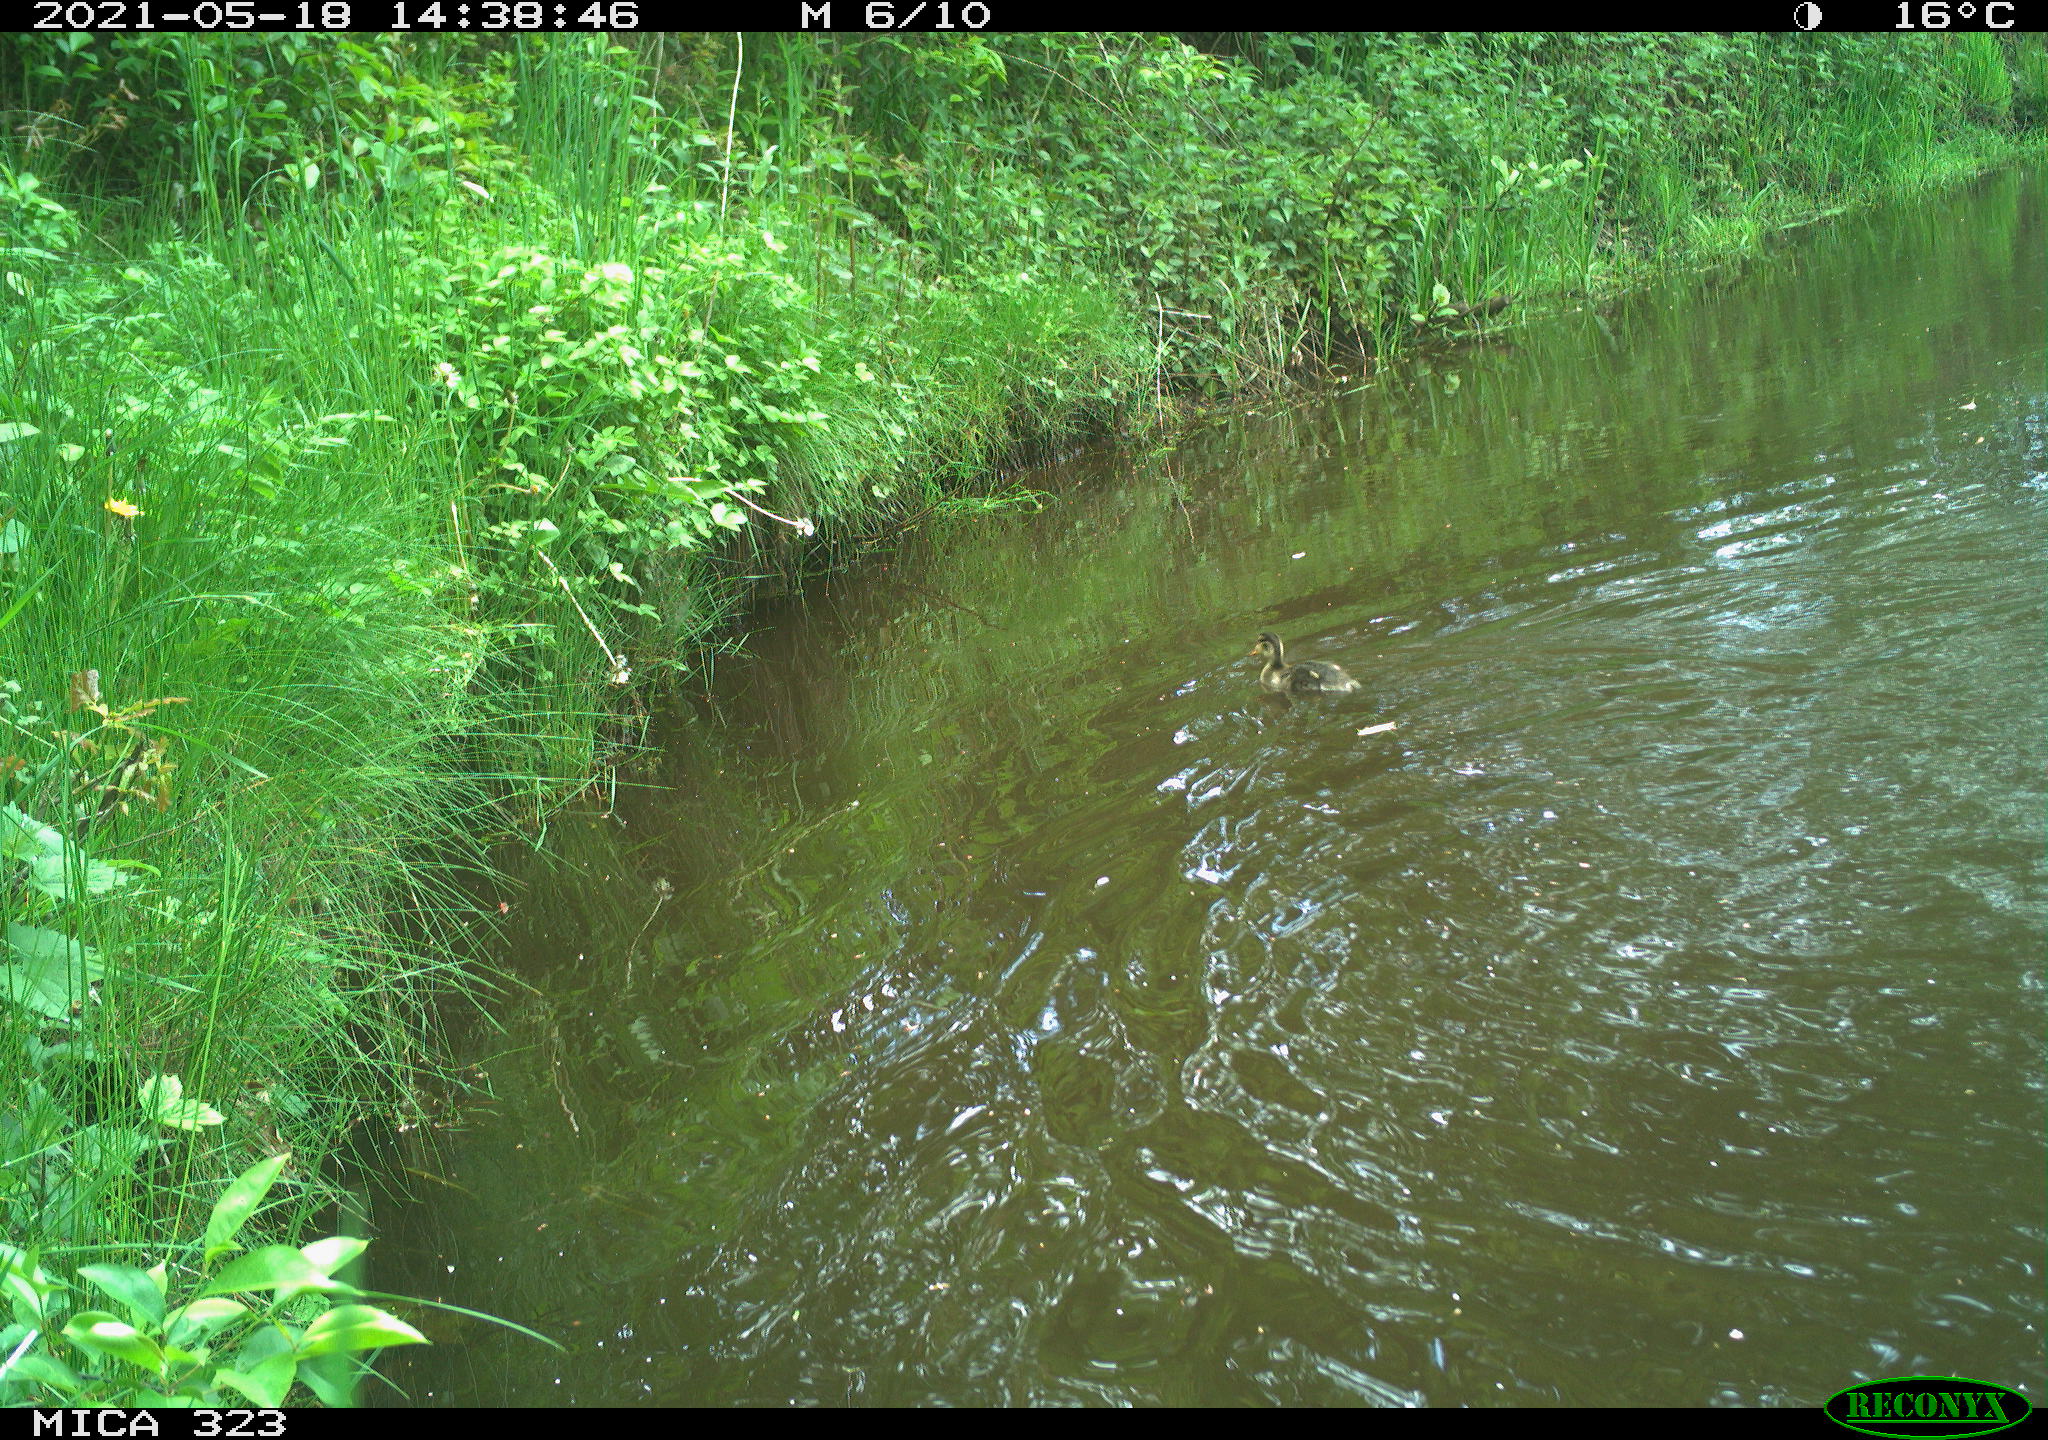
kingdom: Animalia
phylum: Chordata
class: Aves
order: Anseriformes
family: Anatidae
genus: Anas
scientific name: Anas platyrhynchos
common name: Mallard
